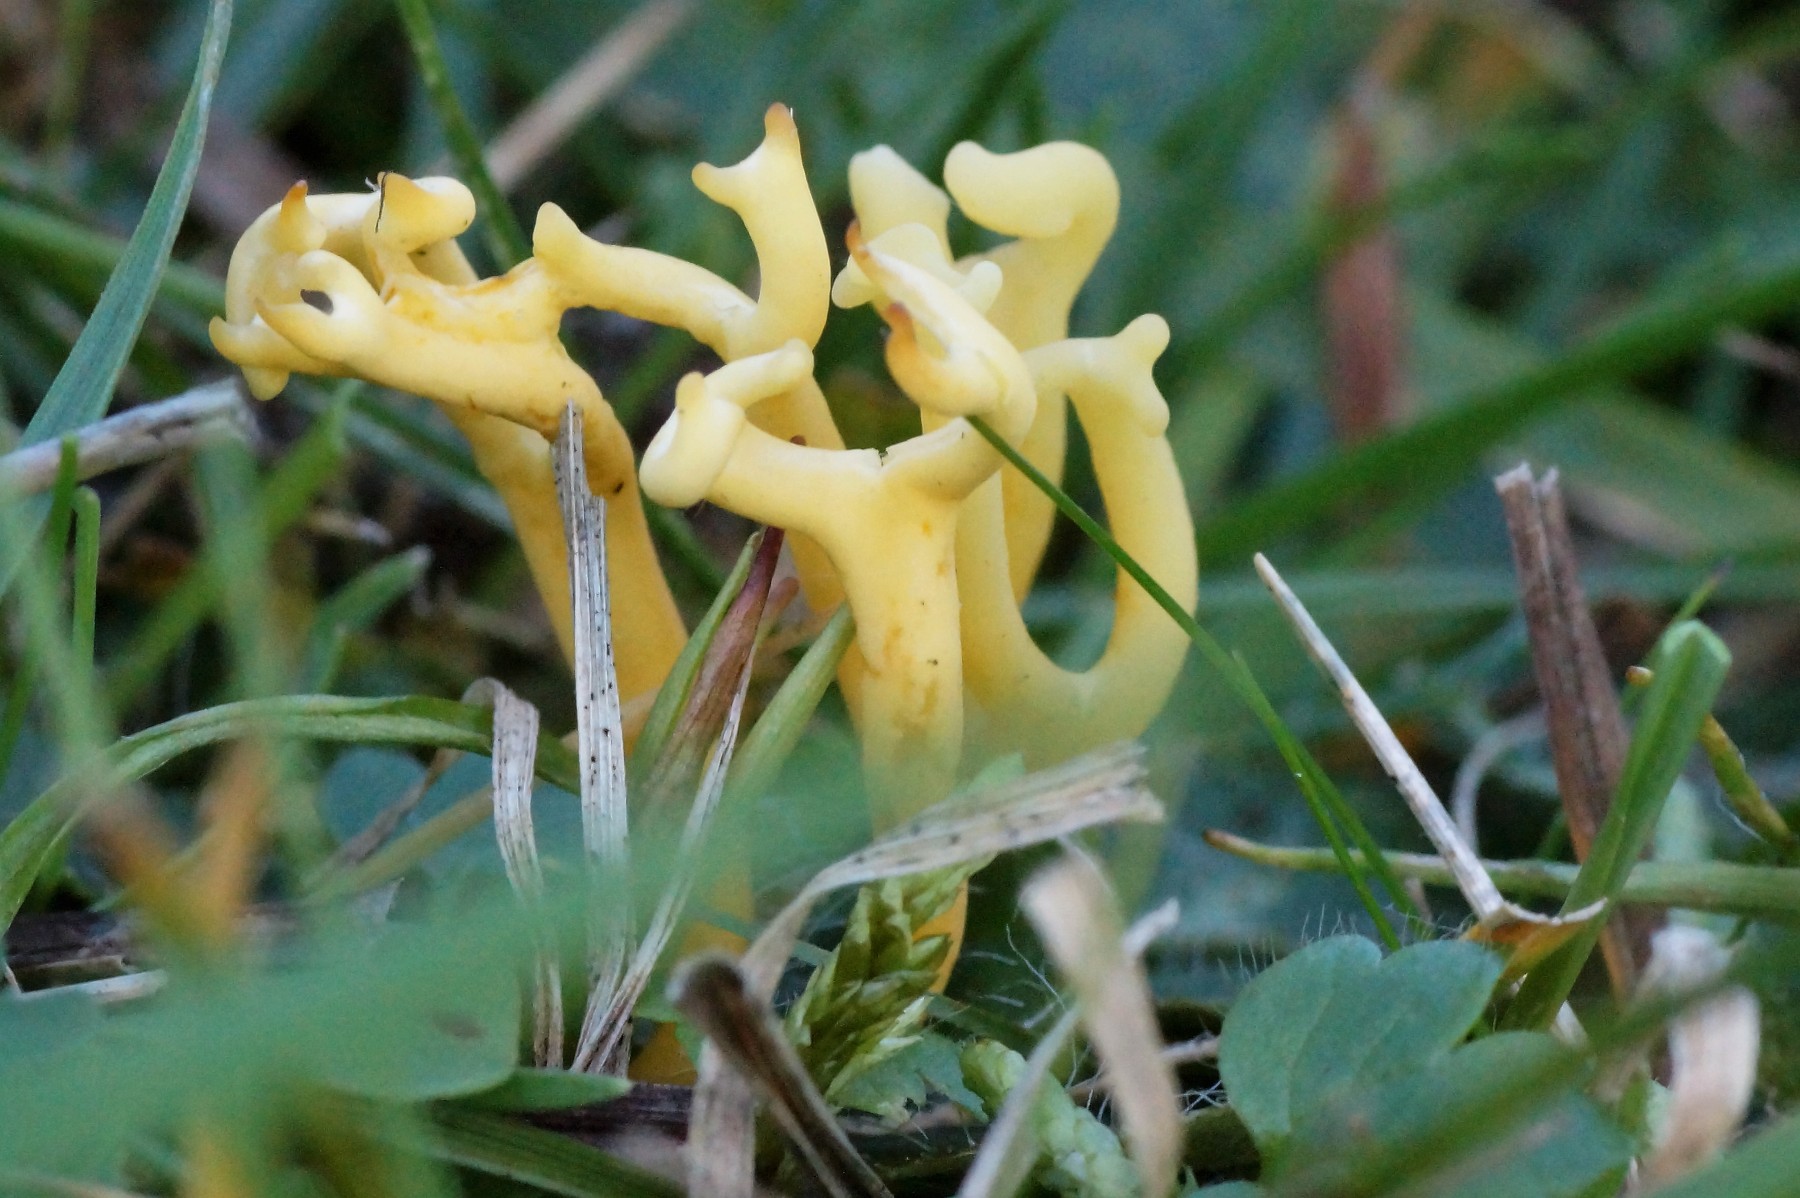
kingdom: Fungi
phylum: Basidiomycota
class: Agaricomycetes
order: Agaricales
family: Clavariaceae
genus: Clavulinopsis
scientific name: Clavulinopsis corniculata
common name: eng-køllesvamp
